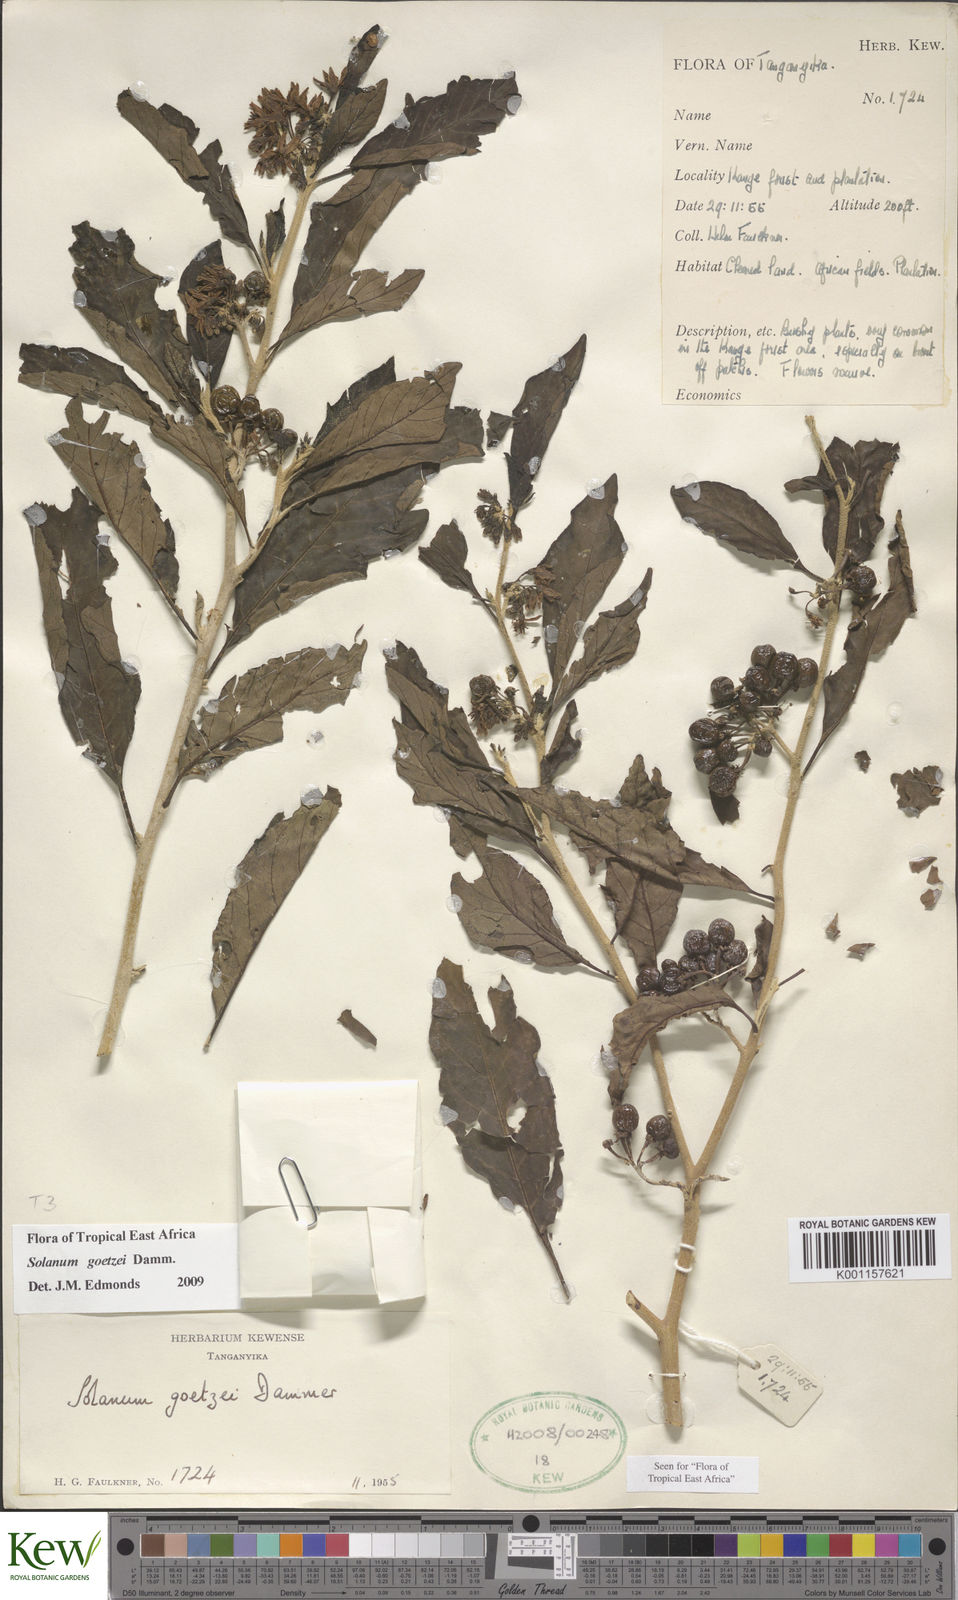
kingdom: Plantae
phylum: Tracheophyta
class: Magnoliopsida
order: Solanales
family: Solanaceae
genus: Solanum
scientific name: Solanum goetzei
